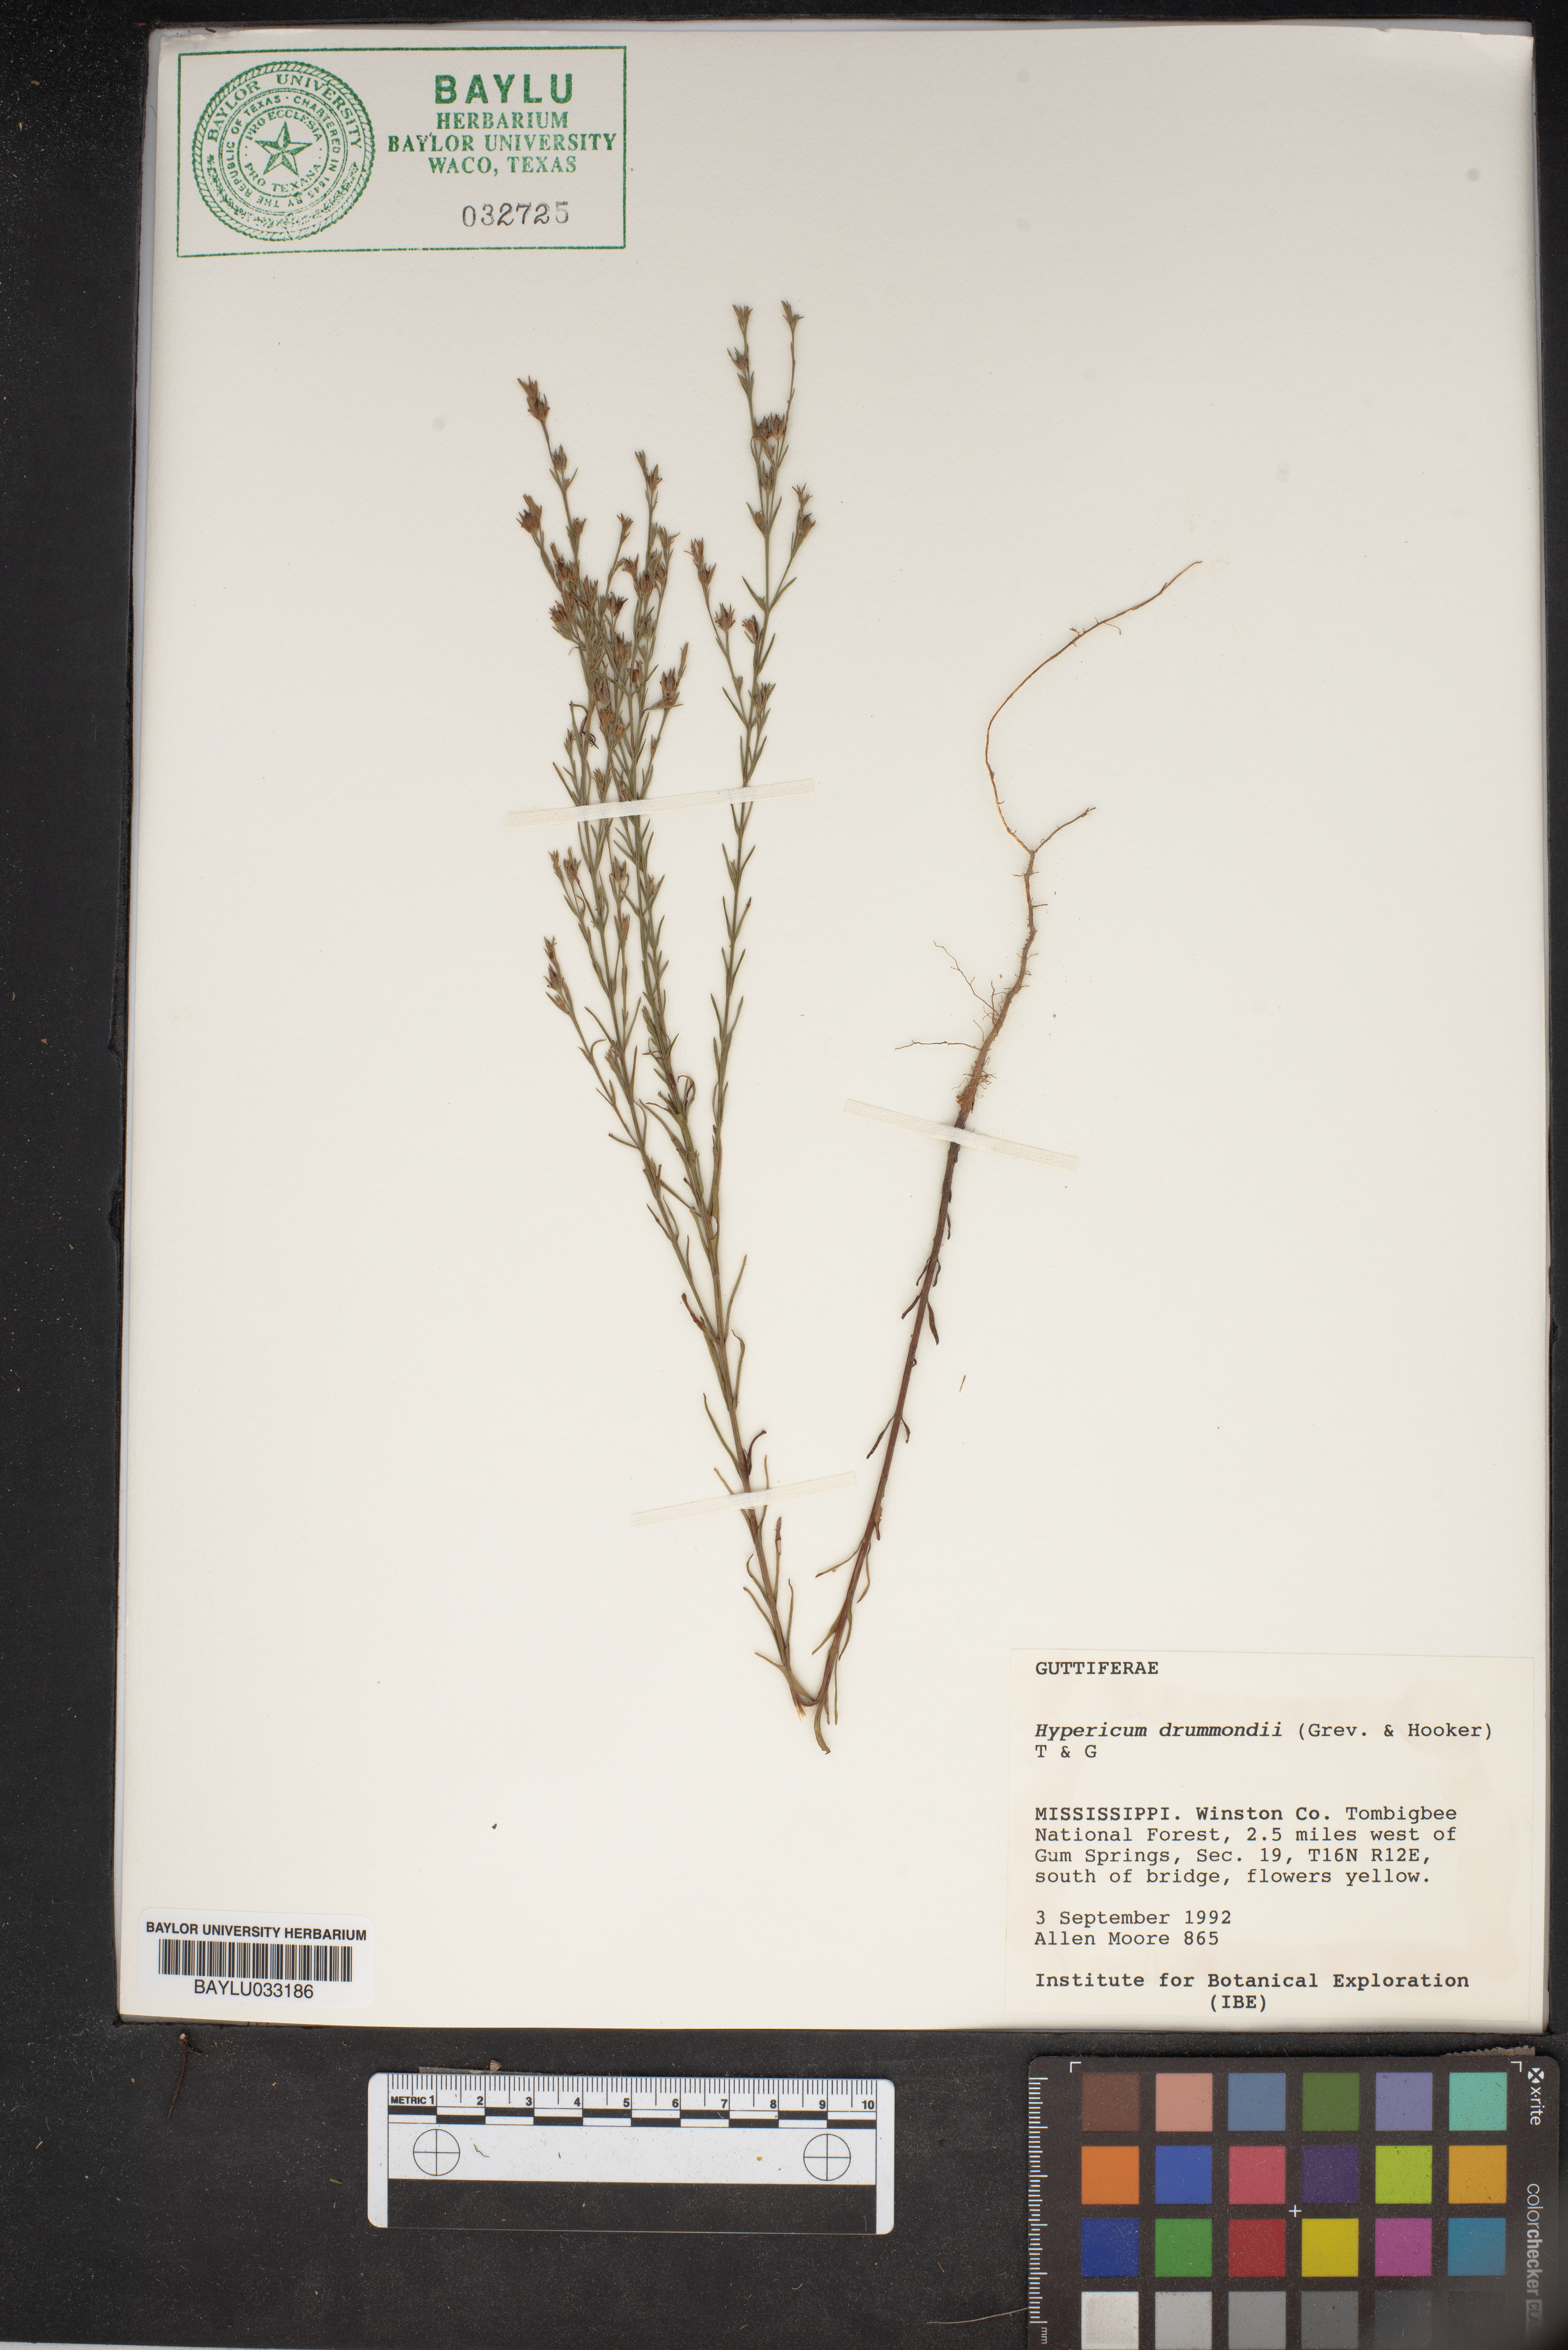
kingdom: Plantae
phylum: Tracheophyta
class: Magnoliopsida
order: Malpighiales
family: Hypericaceae
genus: Hypericum
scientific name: Hypericum drummondii
